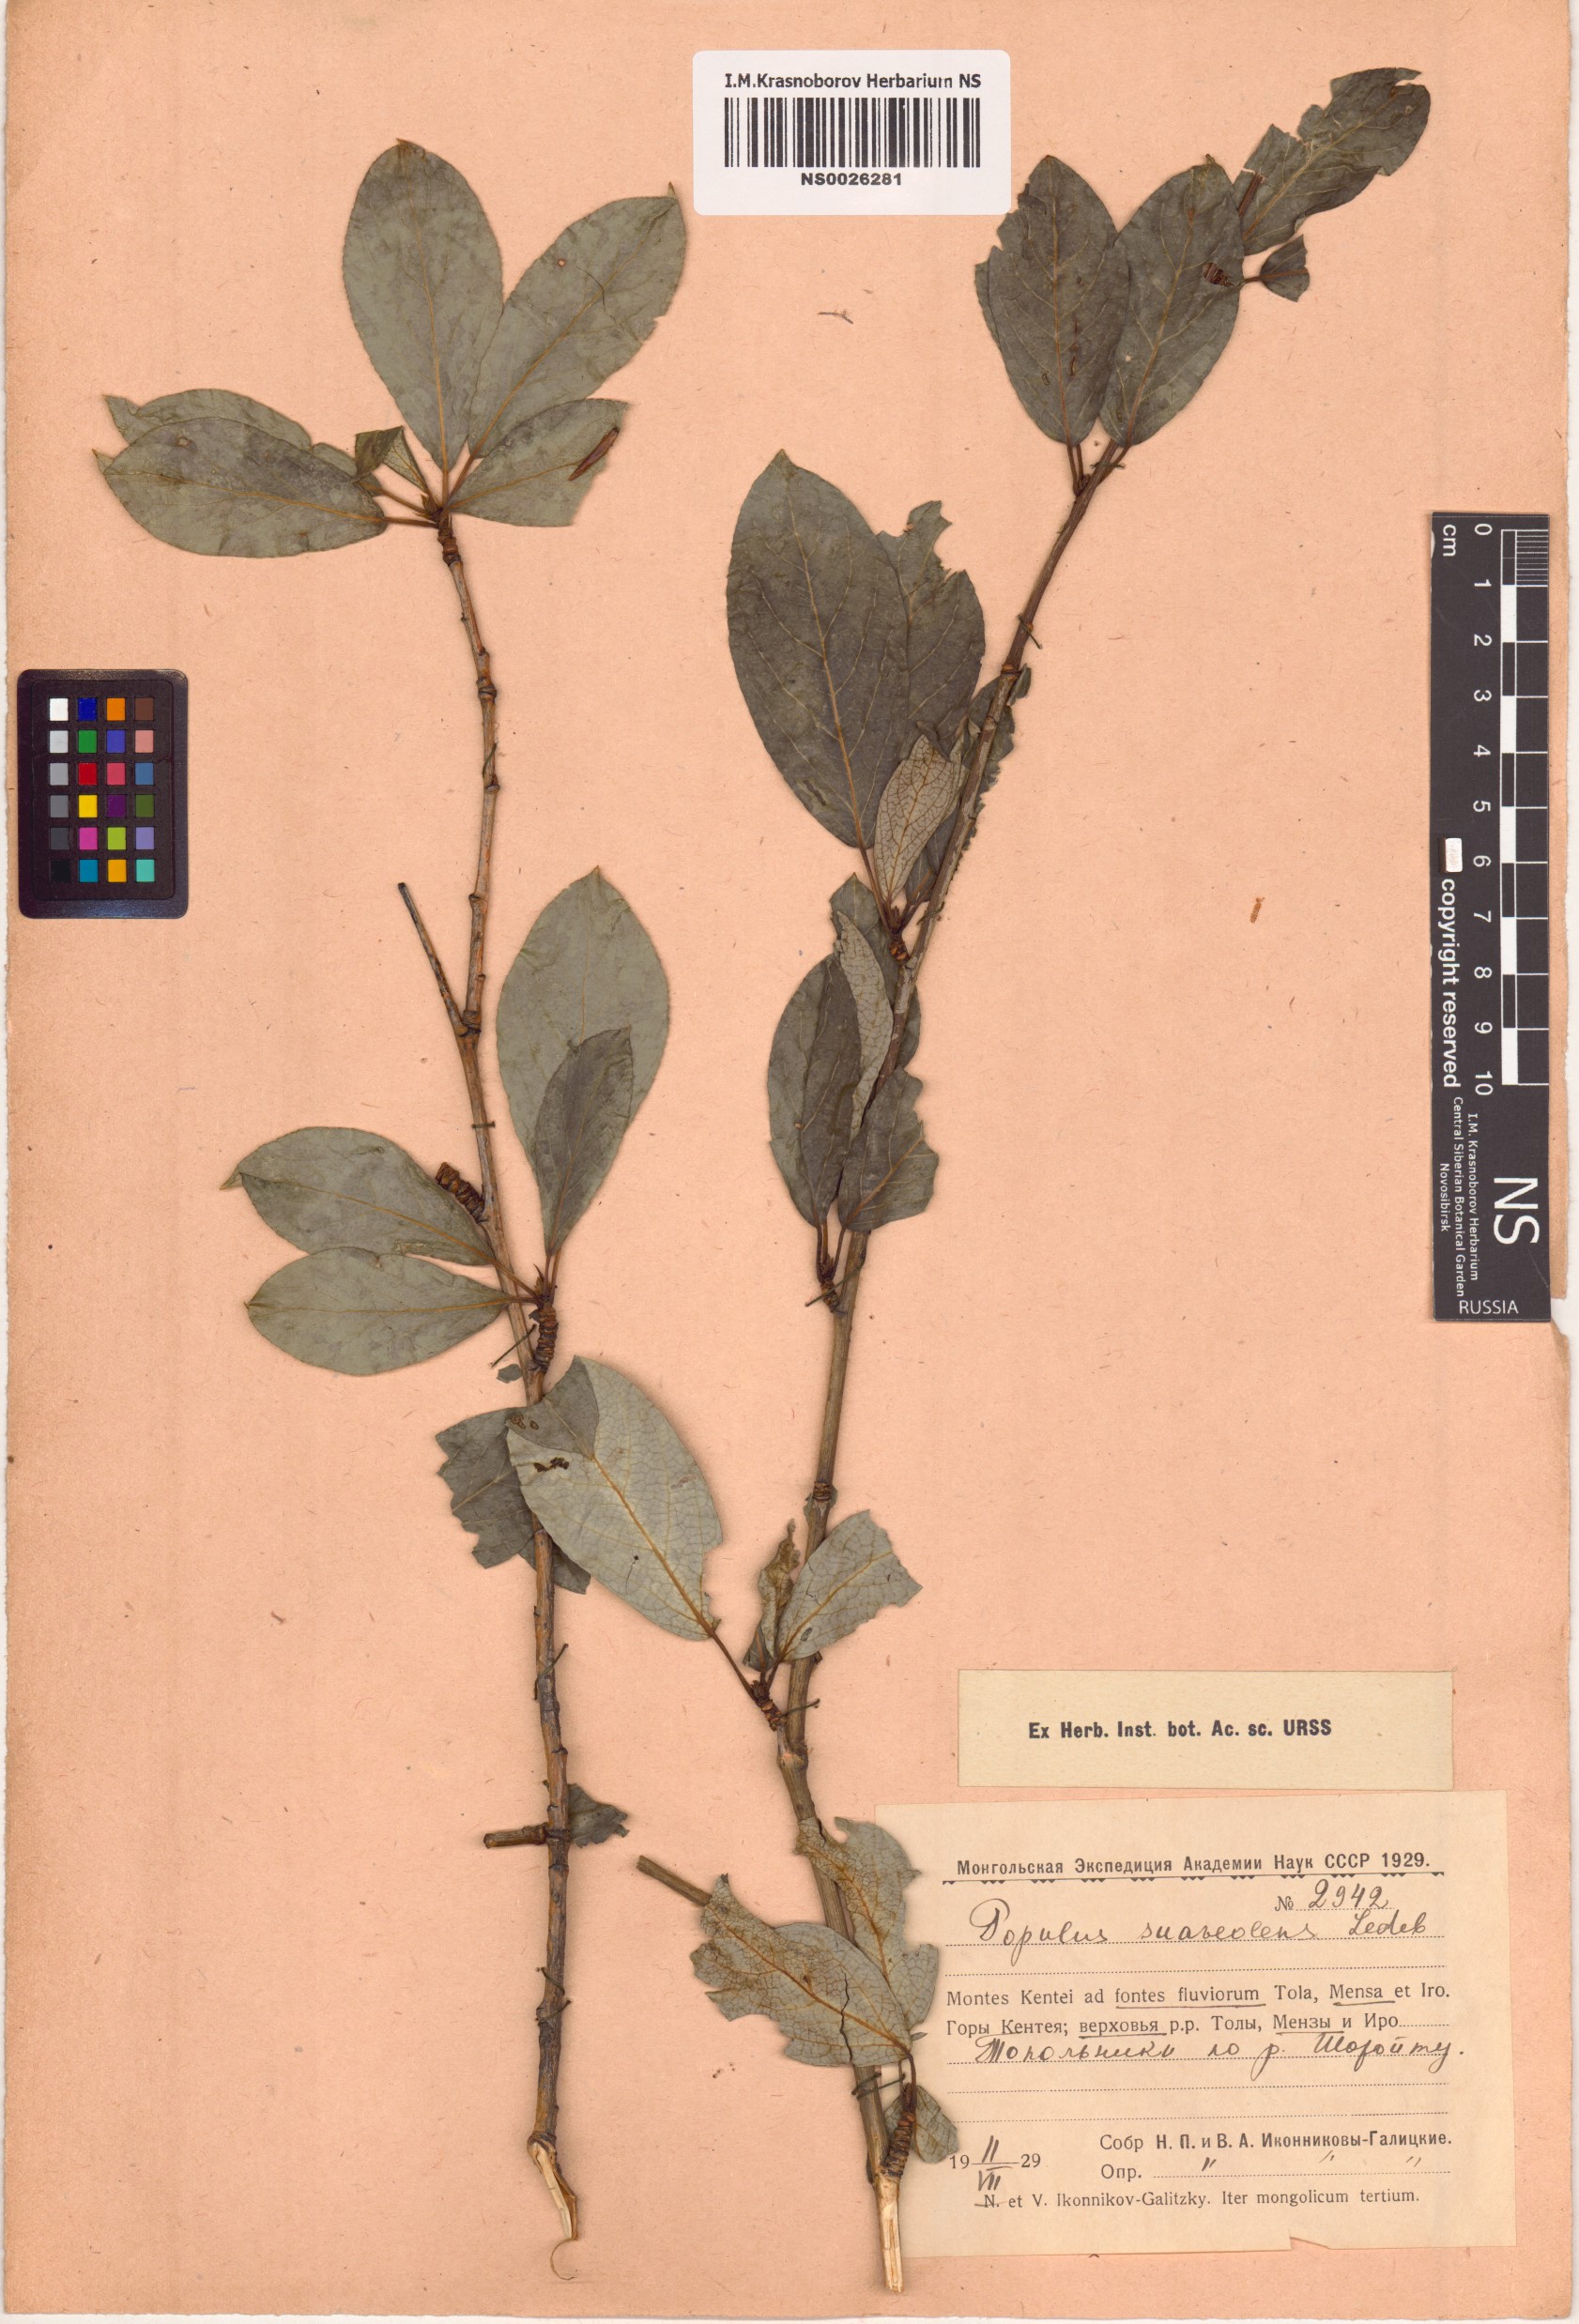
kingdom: Plantae
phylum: Tracheophyta
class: Magnoliopsida
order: Malpighiales
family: Salicaceae
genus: Populus
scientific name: Populus suaveolens
